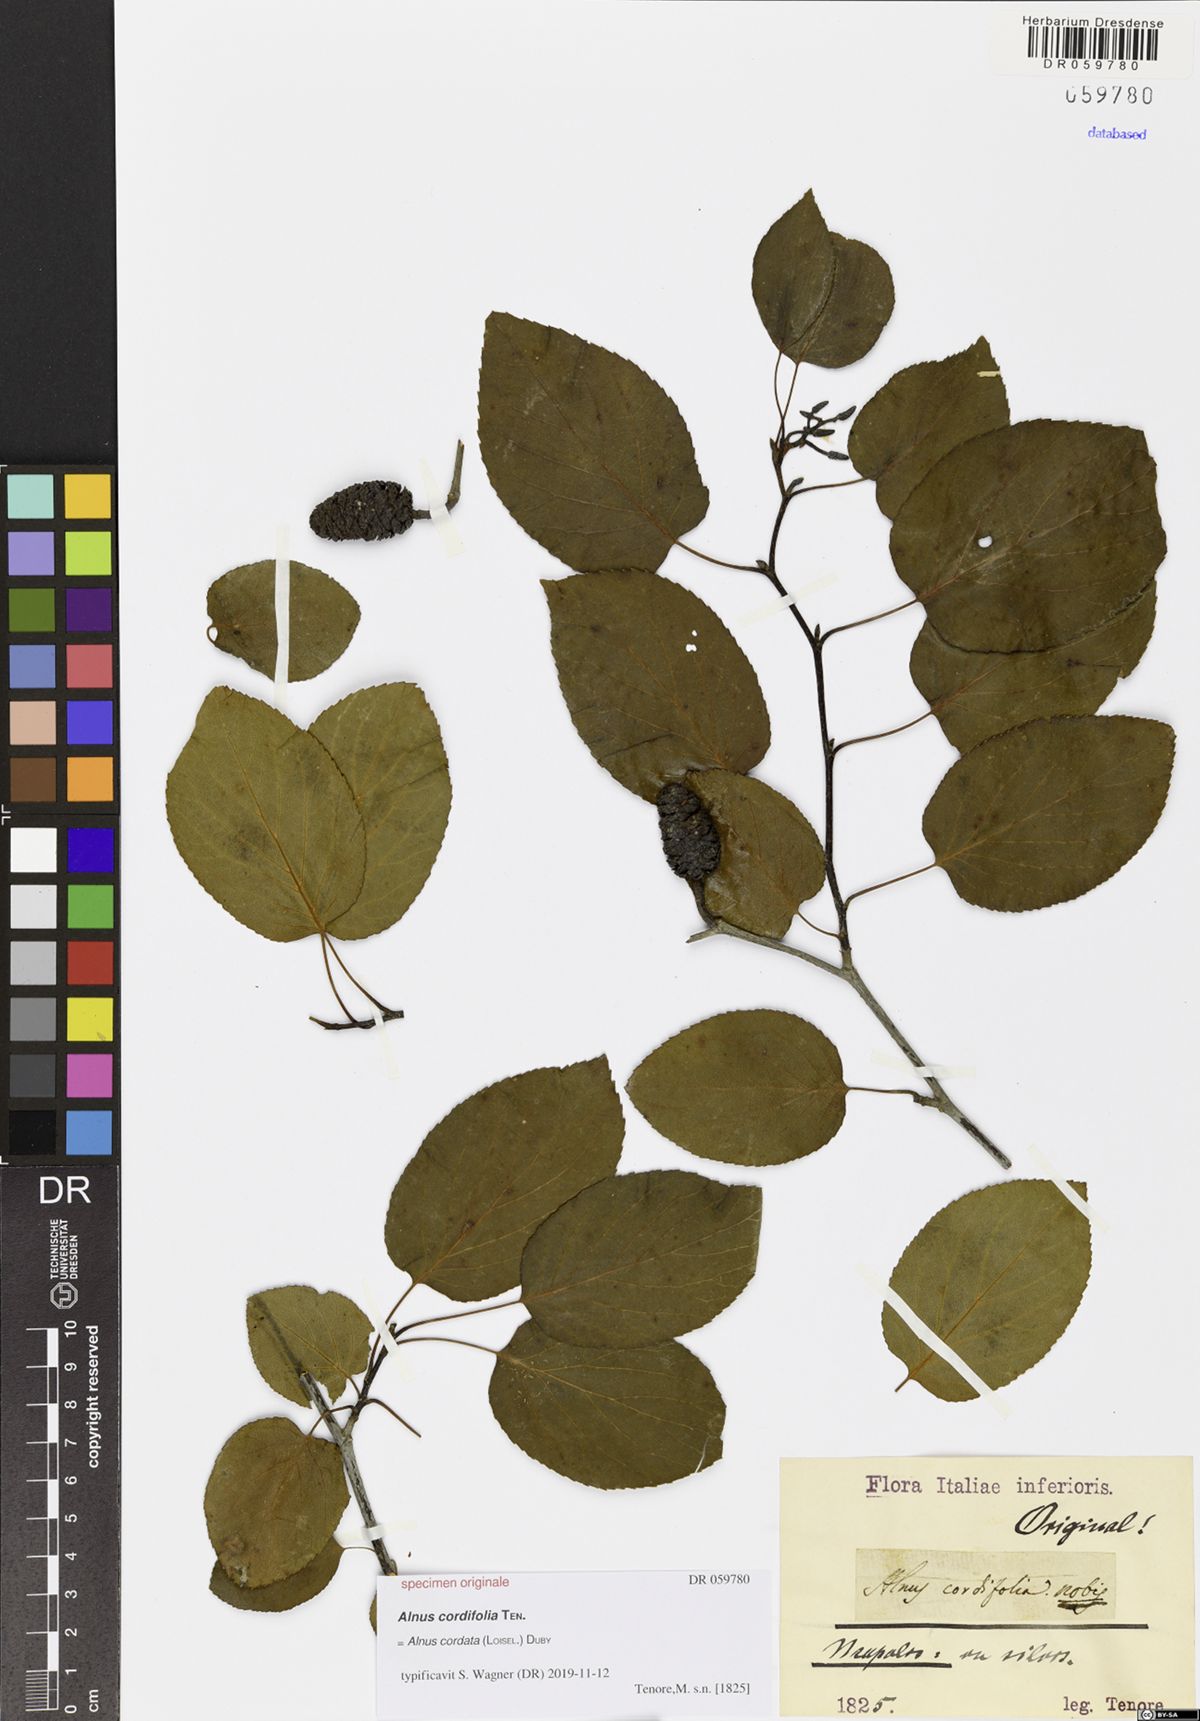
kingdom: Plantae
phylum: Tracheophyta
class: Magnoliopsida
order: Fagales
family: Betulaceae
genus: Alnus
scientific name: Alnus cordata
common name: Italian alder
